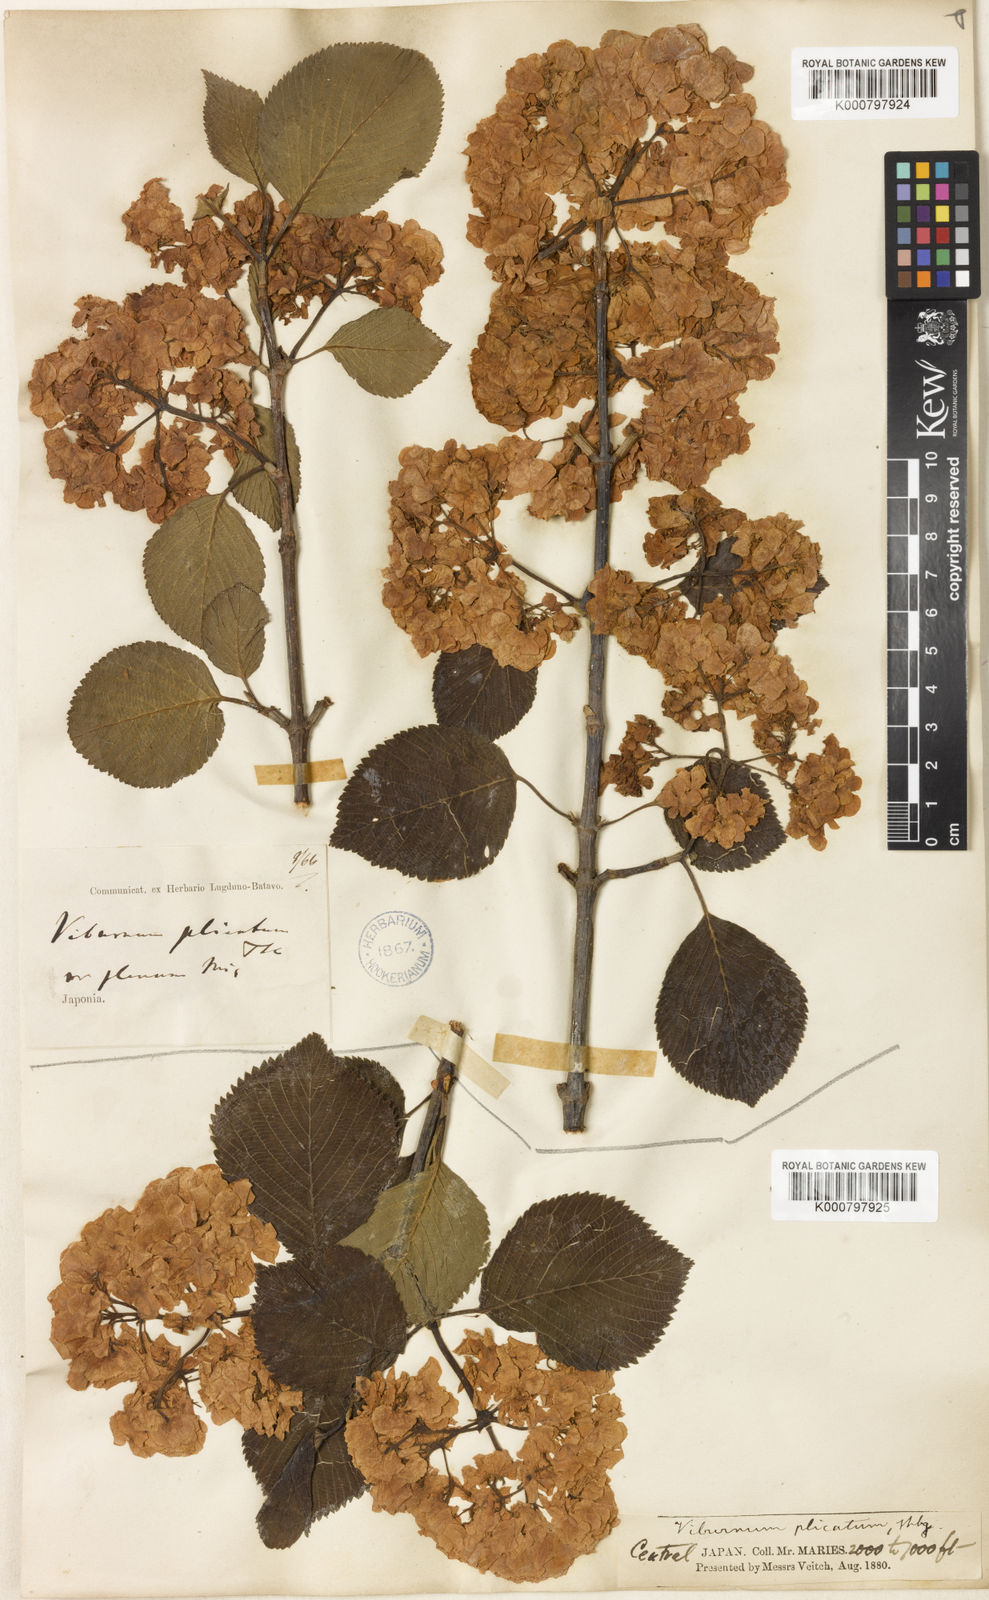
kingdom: Plantae
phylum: Tracheophyta
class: Magnoliopsida
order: Dipsacales
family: Viburnaceae
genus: Viburnum
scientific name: Viburnum
